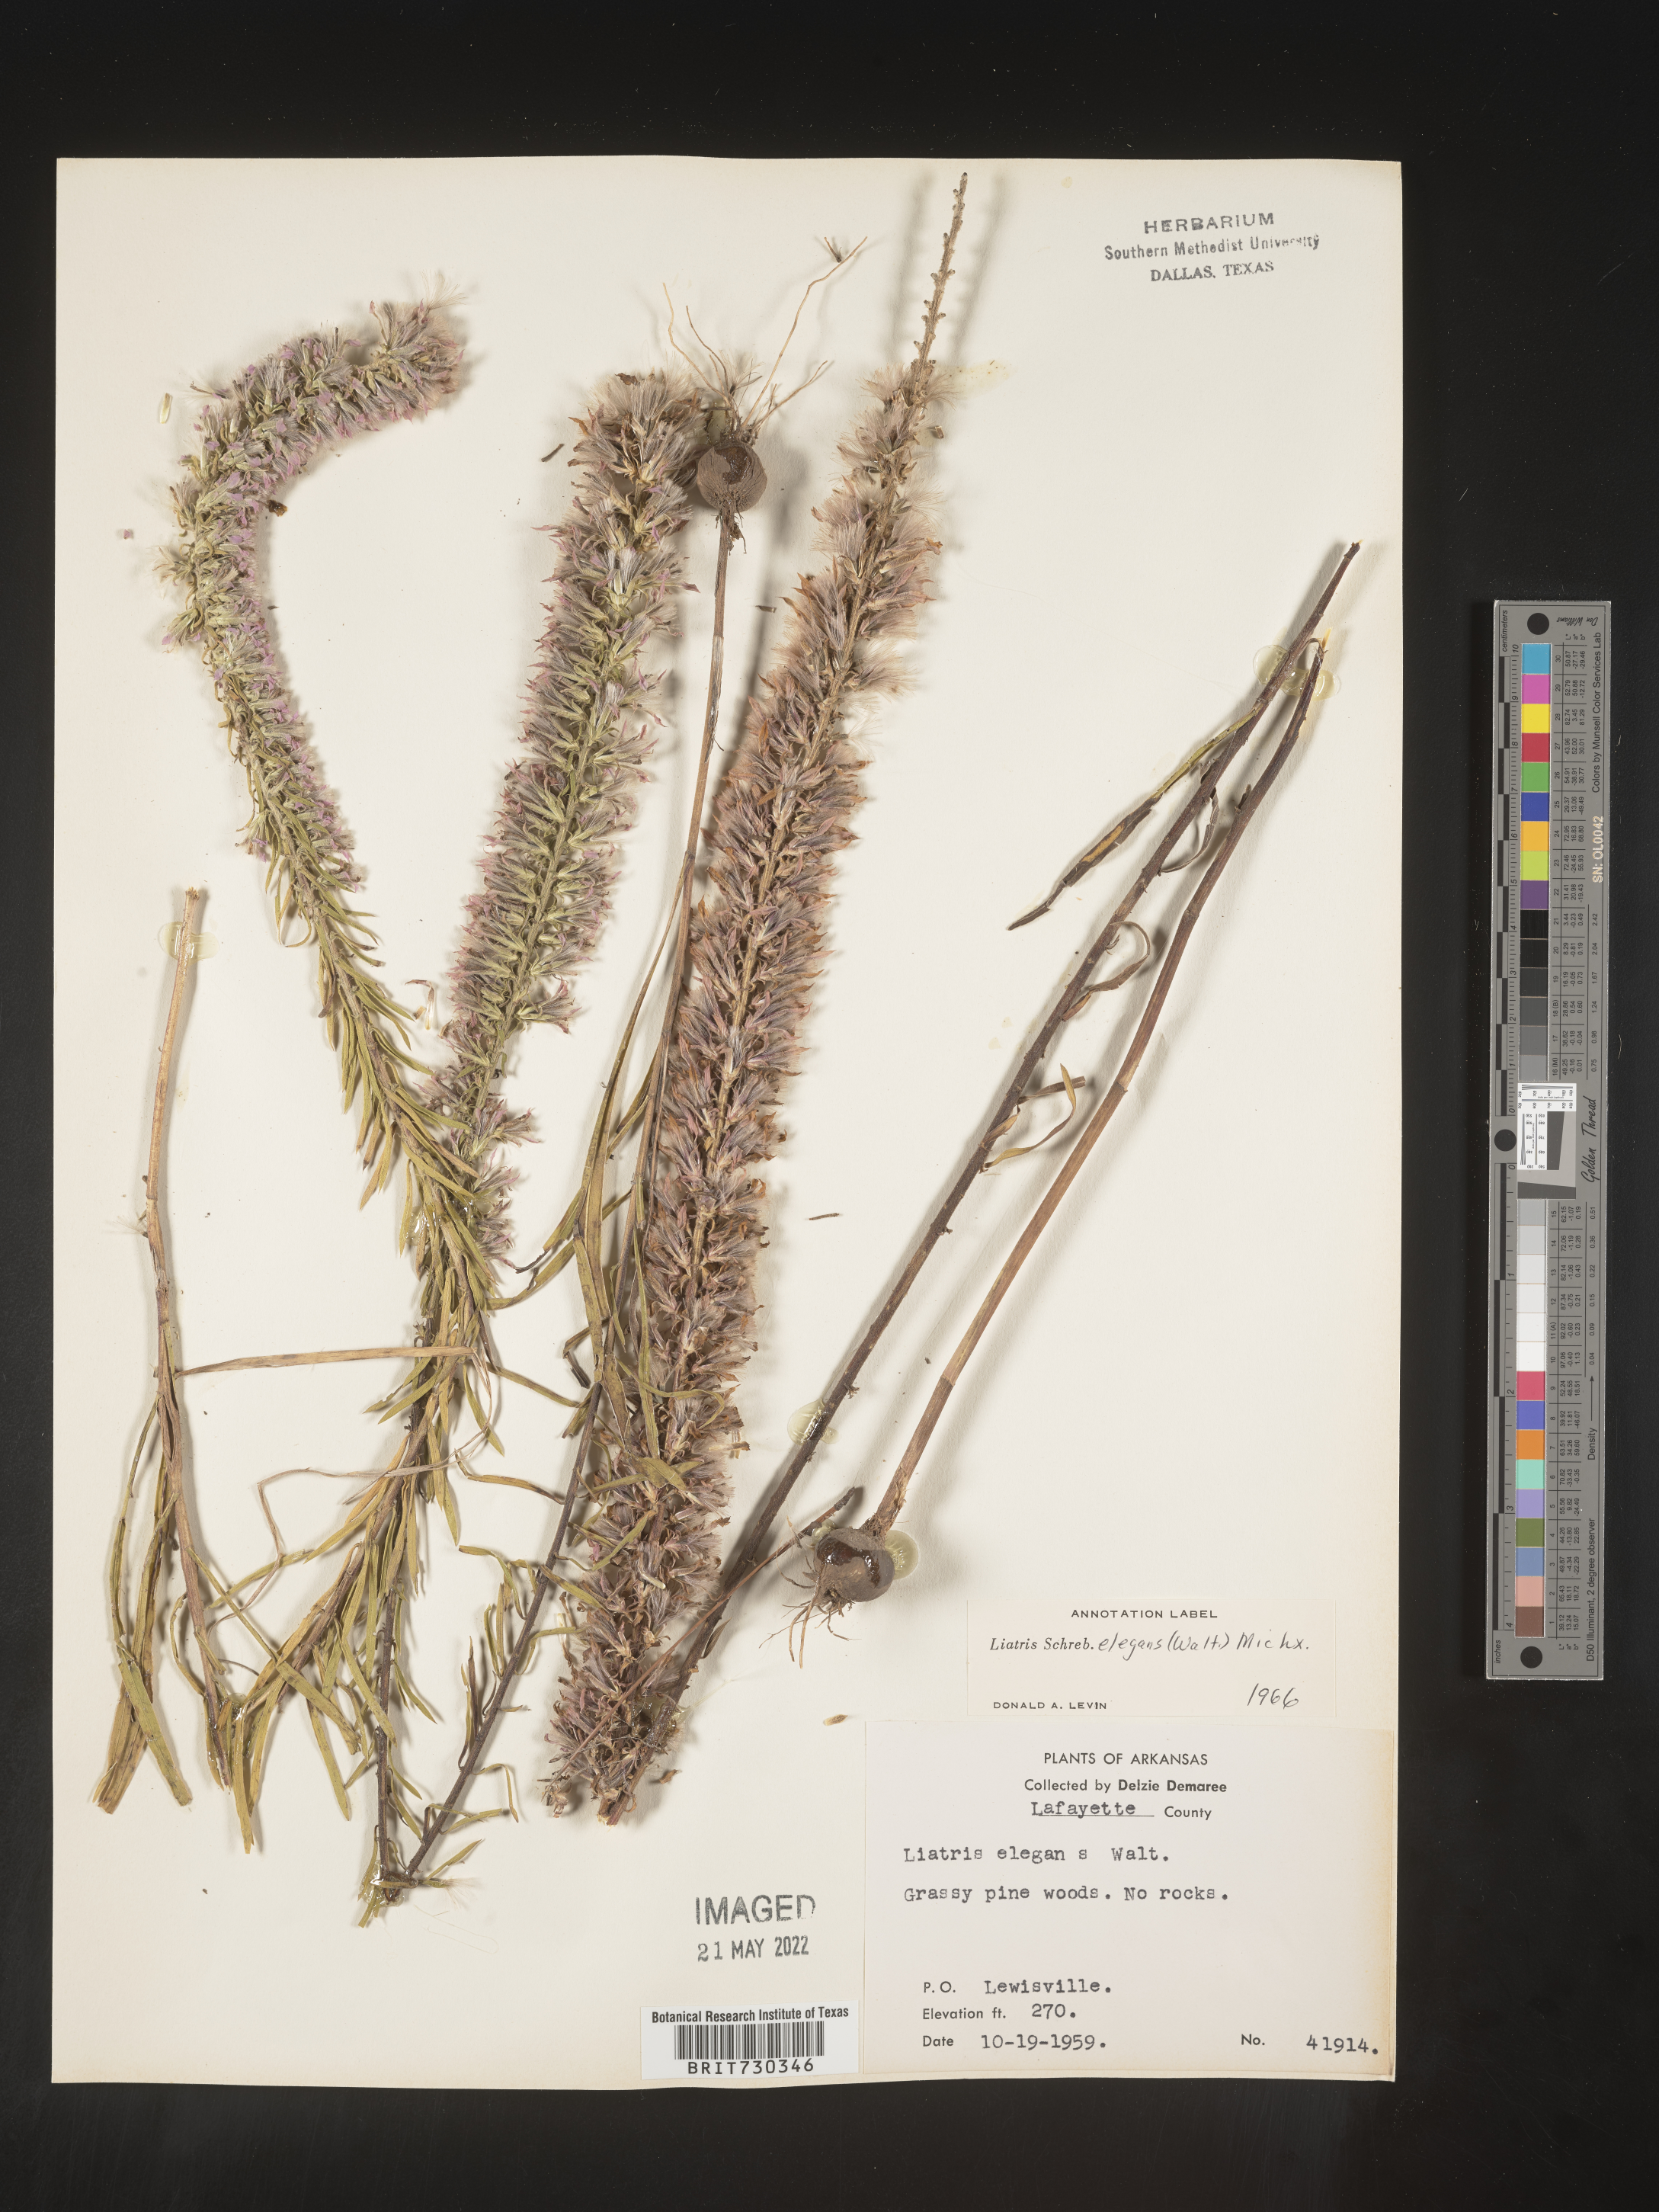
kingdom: Plantae
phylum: Tracheophyta
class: Magnoliopsida
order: Asterales
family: Asteraceae
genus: Liatris
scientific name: Liatris elegans
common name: Pinkscale gayfeather
